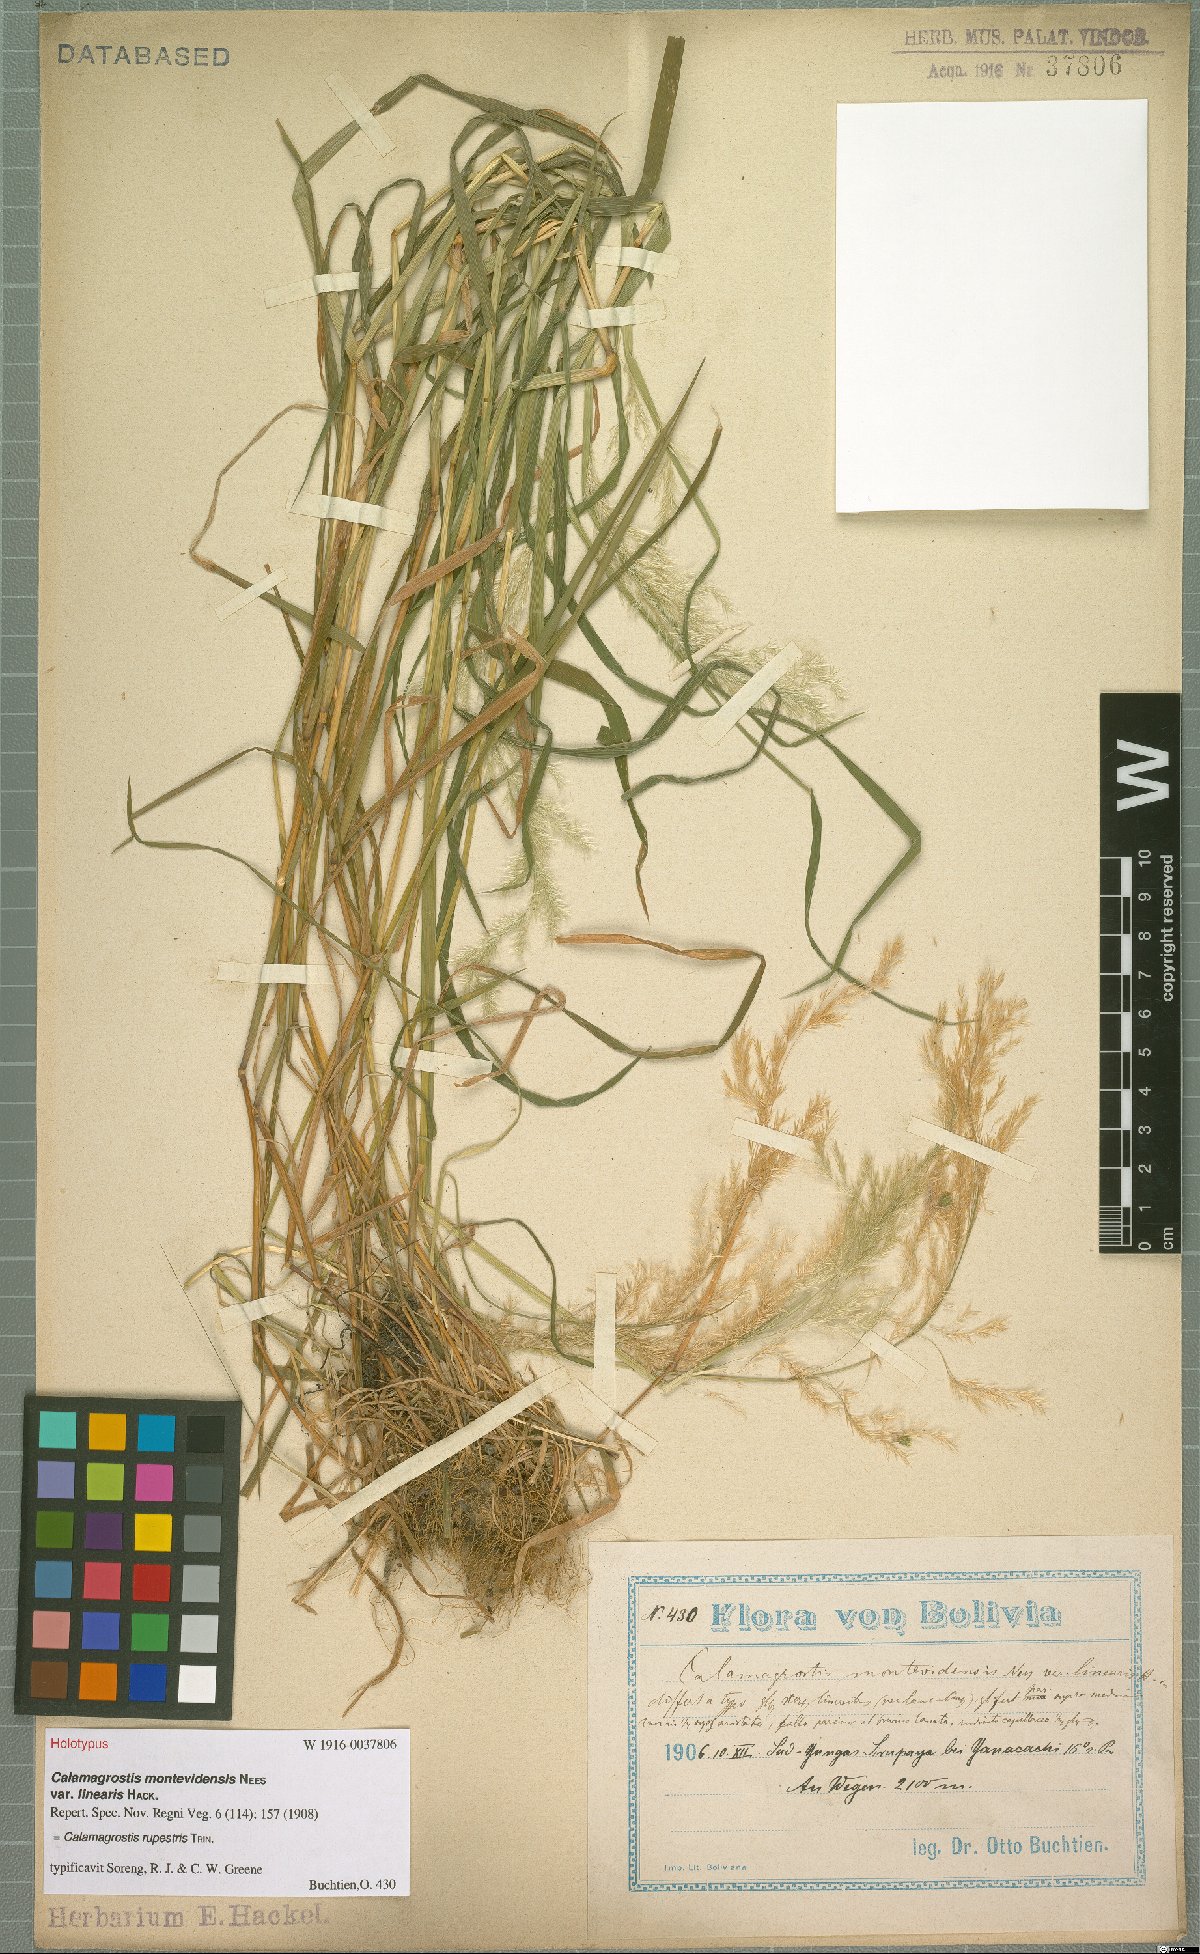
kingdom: Plantae
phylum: Tracheophyta
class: Liliopsida
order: Poales
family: Poaceae
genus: Cinnagrostis
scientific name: Cinnagrostis rupestris
